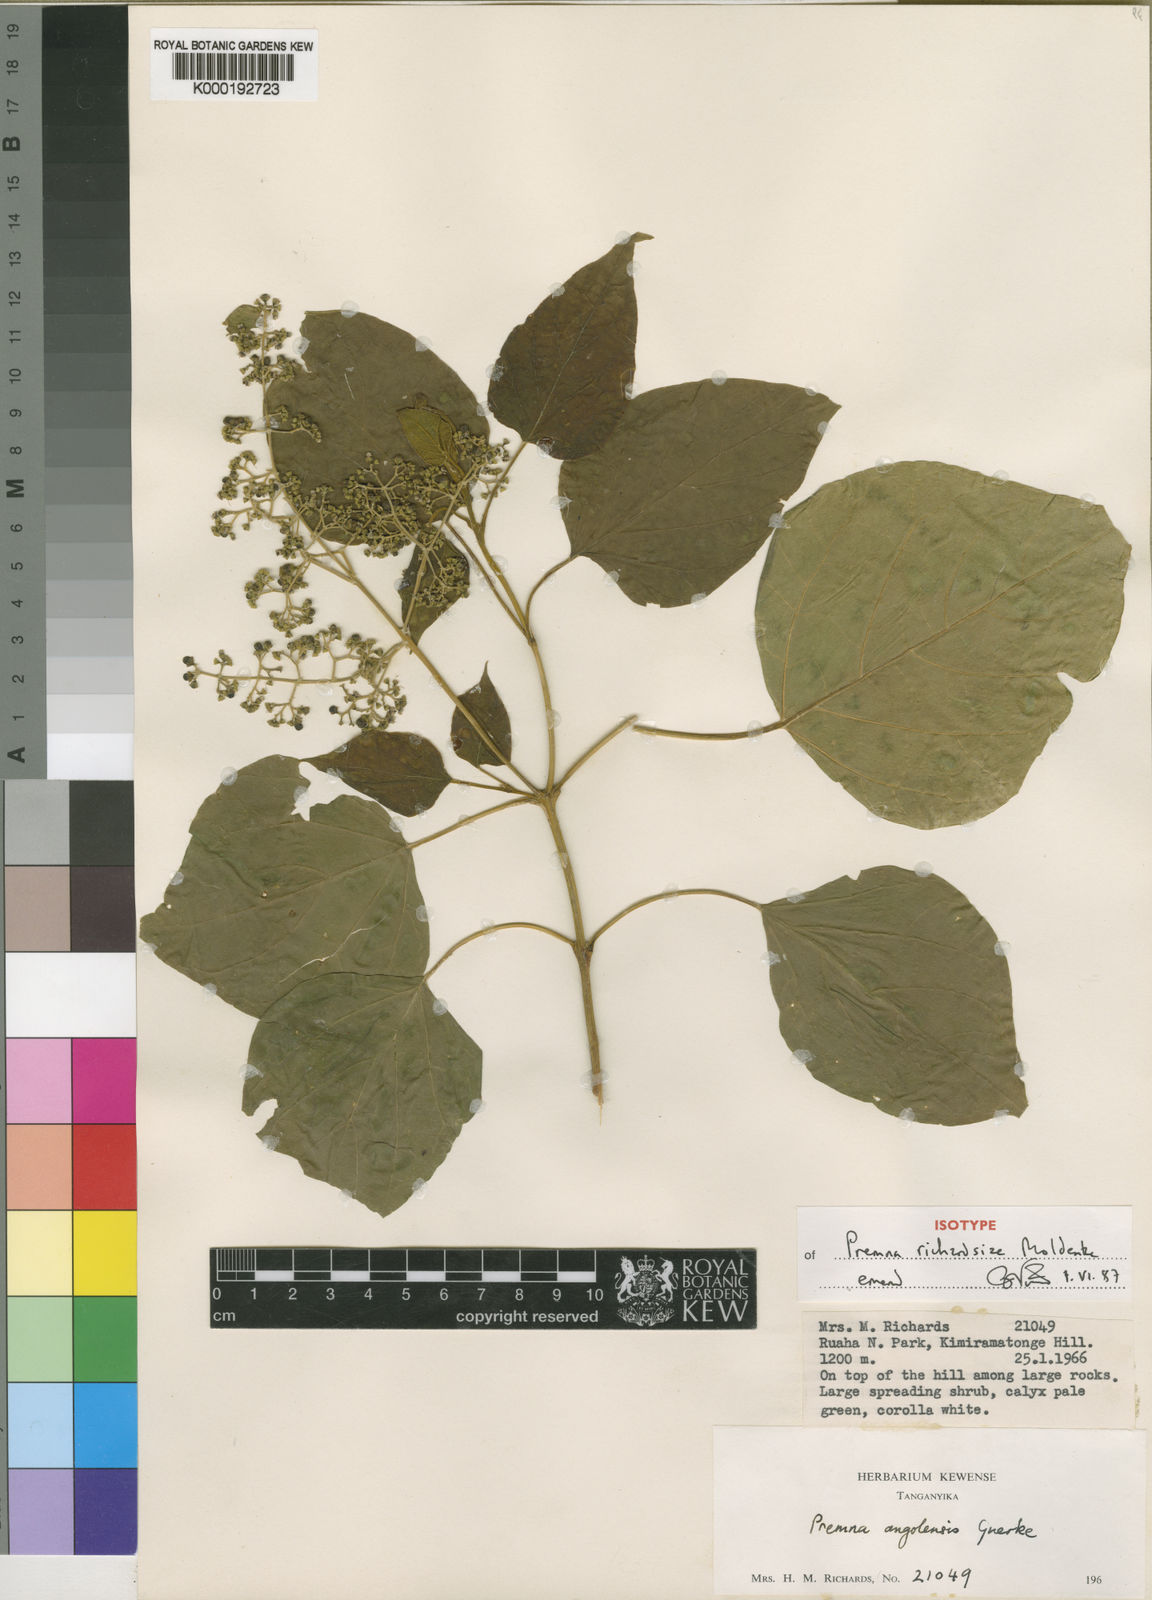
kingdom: Plantae
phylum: Tracheophyta
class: Magnoliopsida
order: Lamiales
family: Lamiaceae
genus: Premna
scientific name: Premna richardsiae
